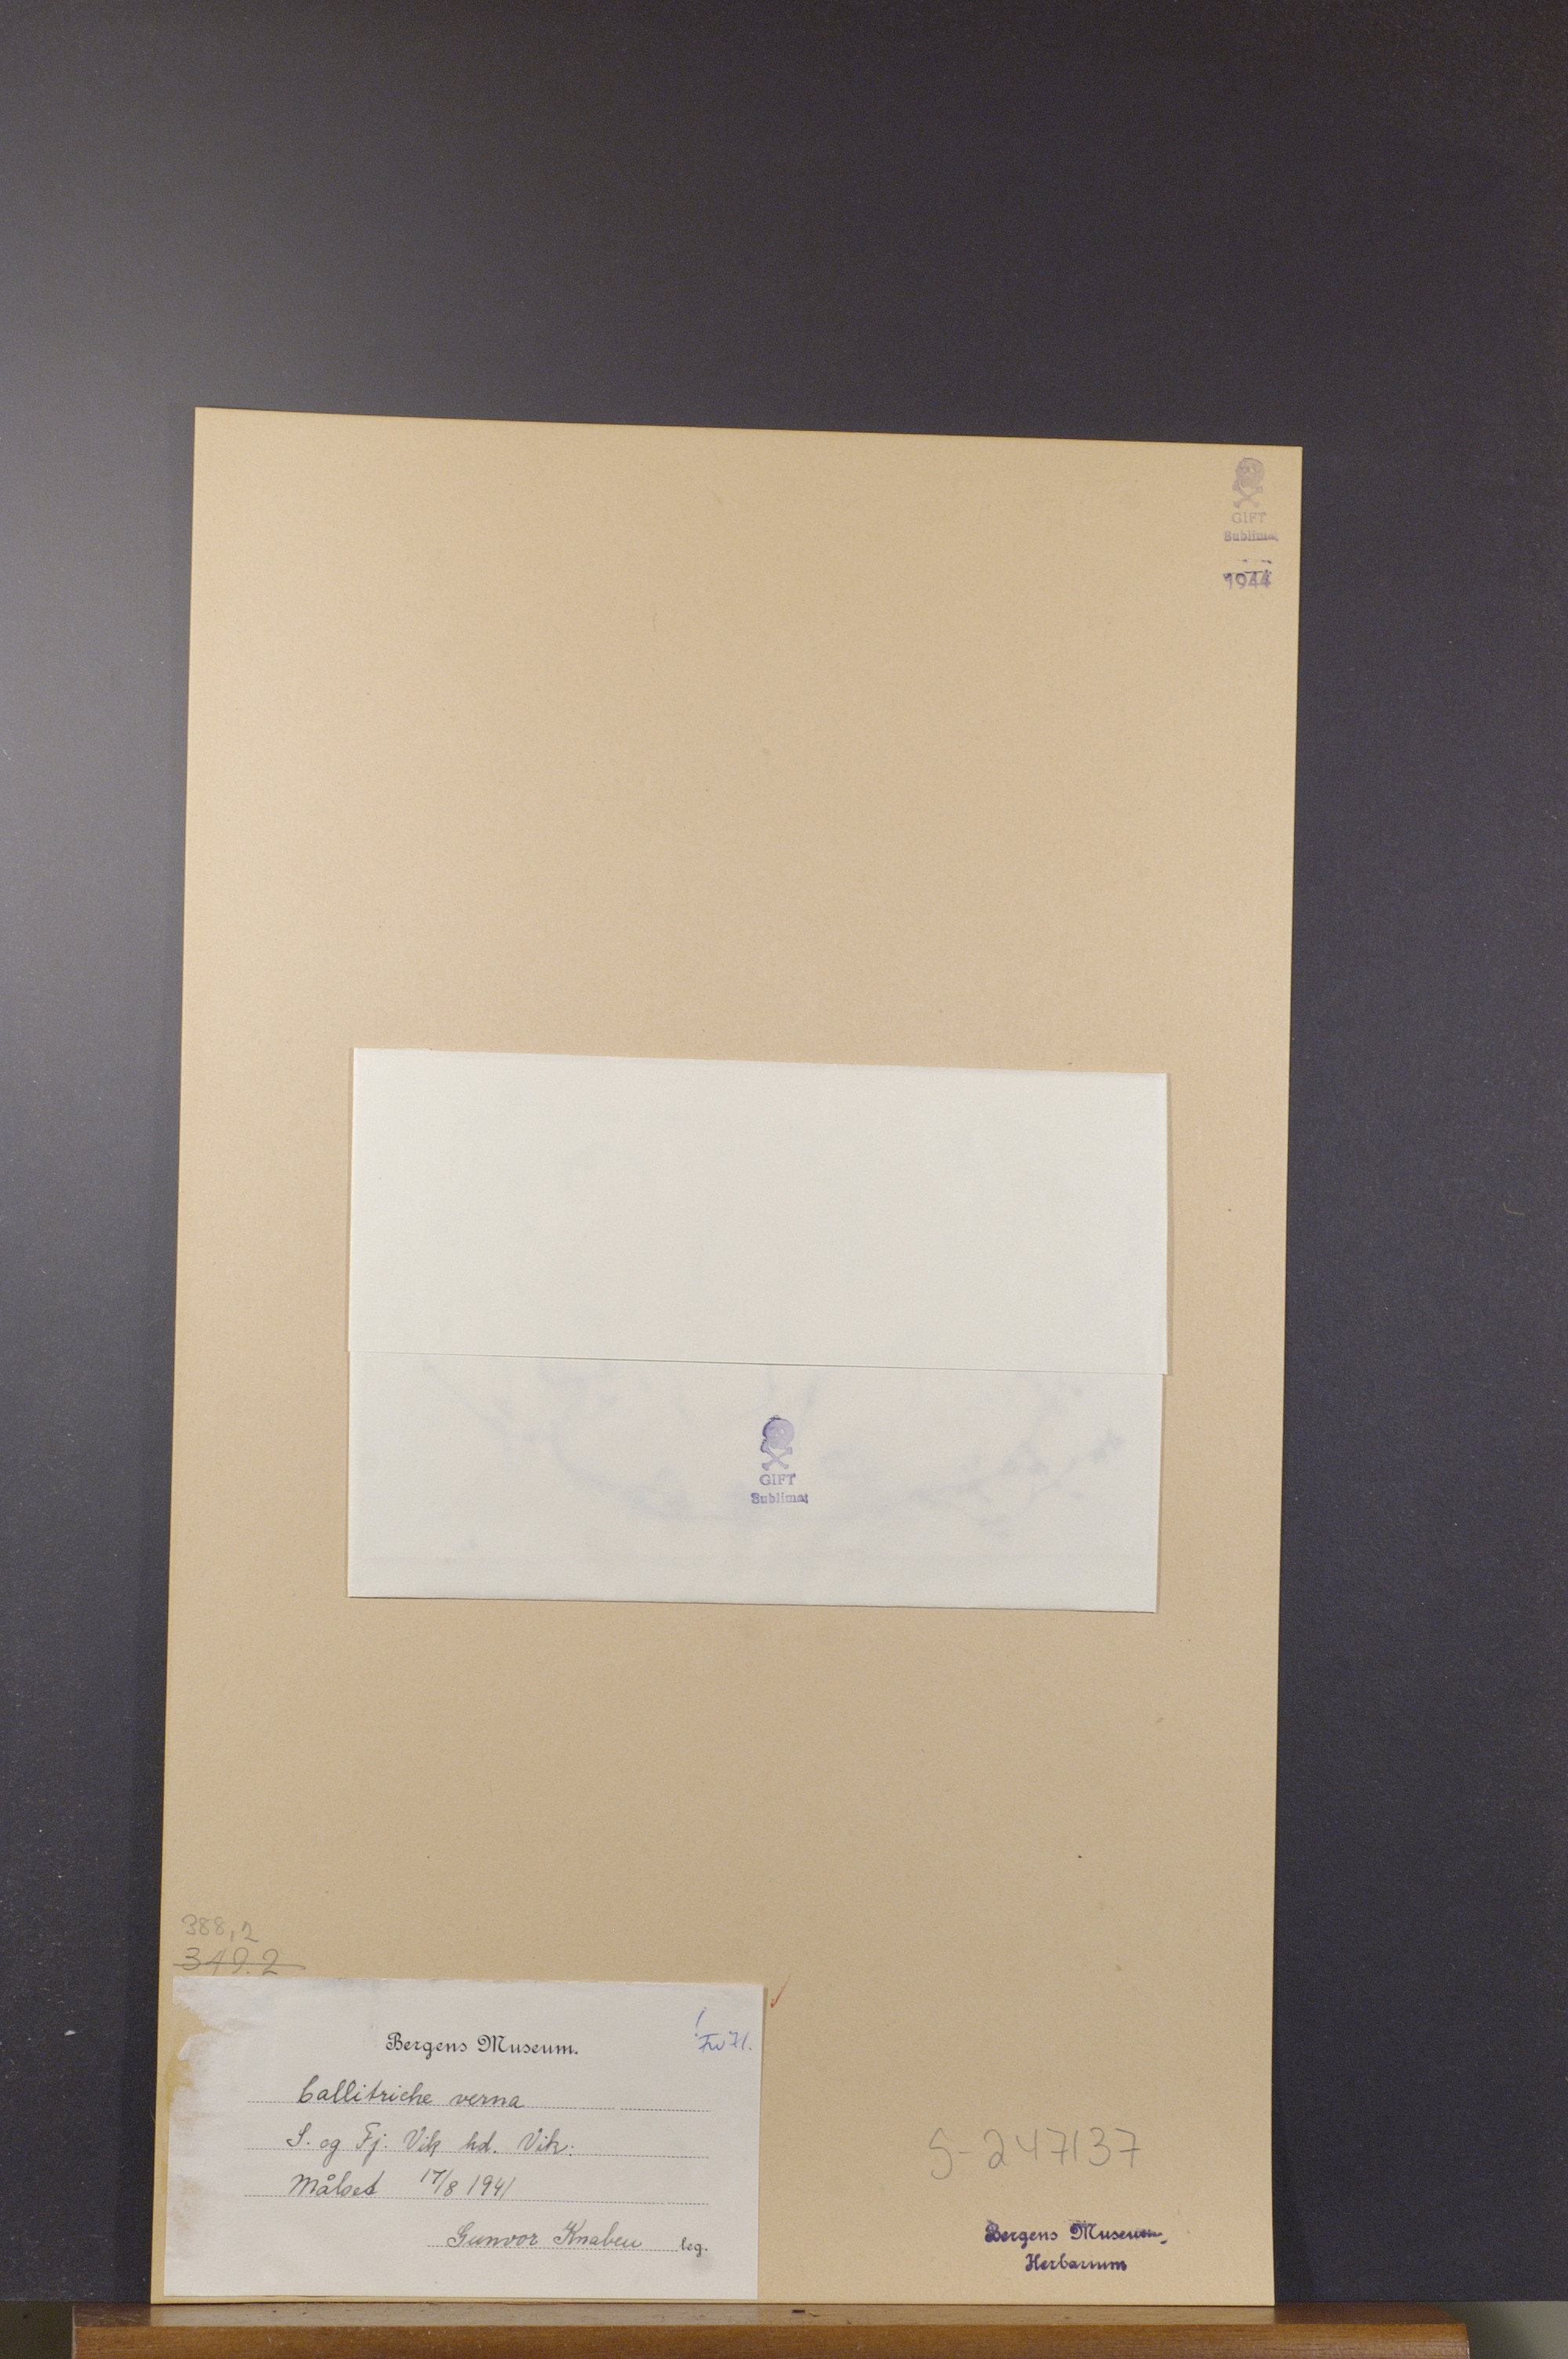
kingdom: Plantae
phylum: Tracheophyta
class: Magnoliopsida
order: Lamiales
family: Plantaginaceae
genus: Callitriche
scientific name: Callitriche palustris
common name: Spring water-starwort
